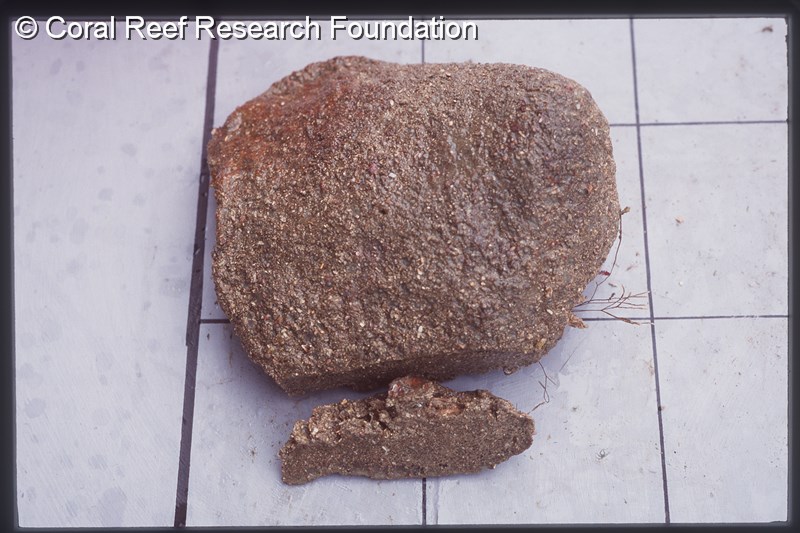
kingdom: Animalia
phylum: Chordata
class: Ascidiacea
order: Aplousobranchia
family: Clavelinidae
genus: Pycnoclavella
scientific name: Pycnoclavella filamentosa
